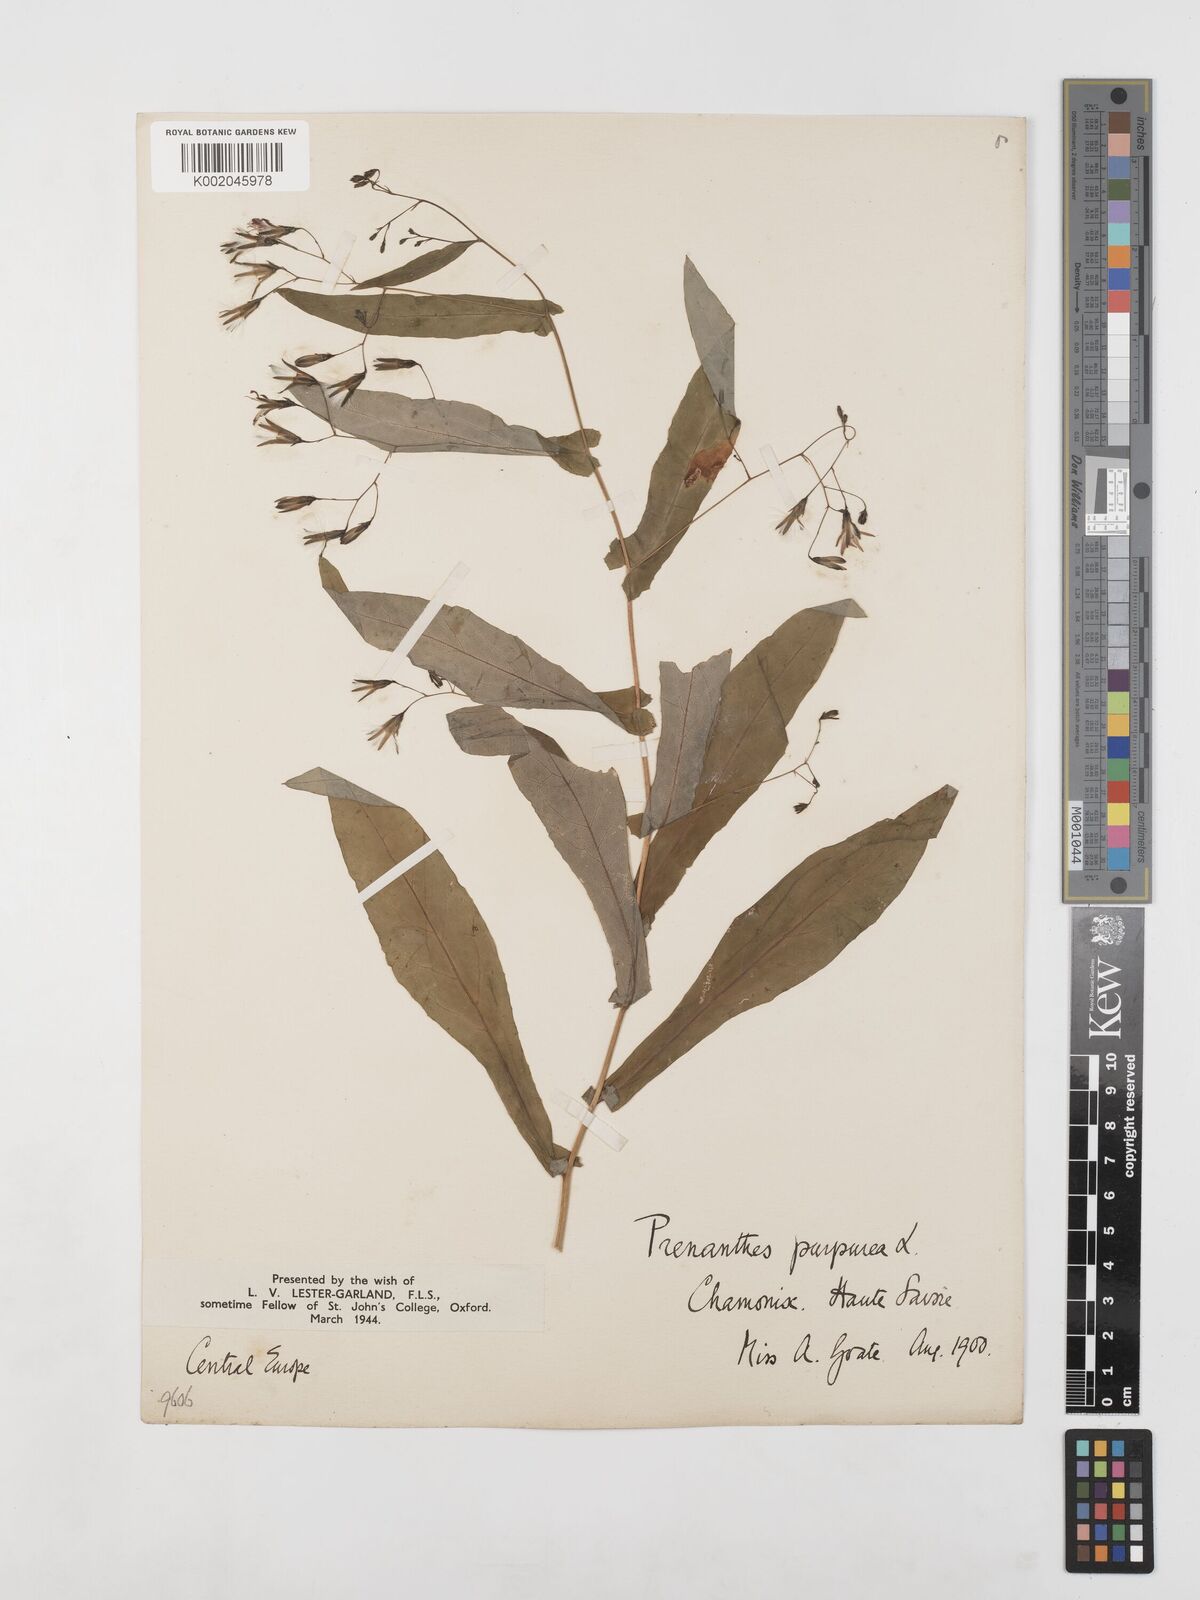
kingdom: Plantae
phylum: Tracheophyta
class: Magnoliopsida
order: Asterales
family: Asteraceae
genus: Prenanthes
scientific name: Prenanthes purpurea
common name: Purple lettuce
